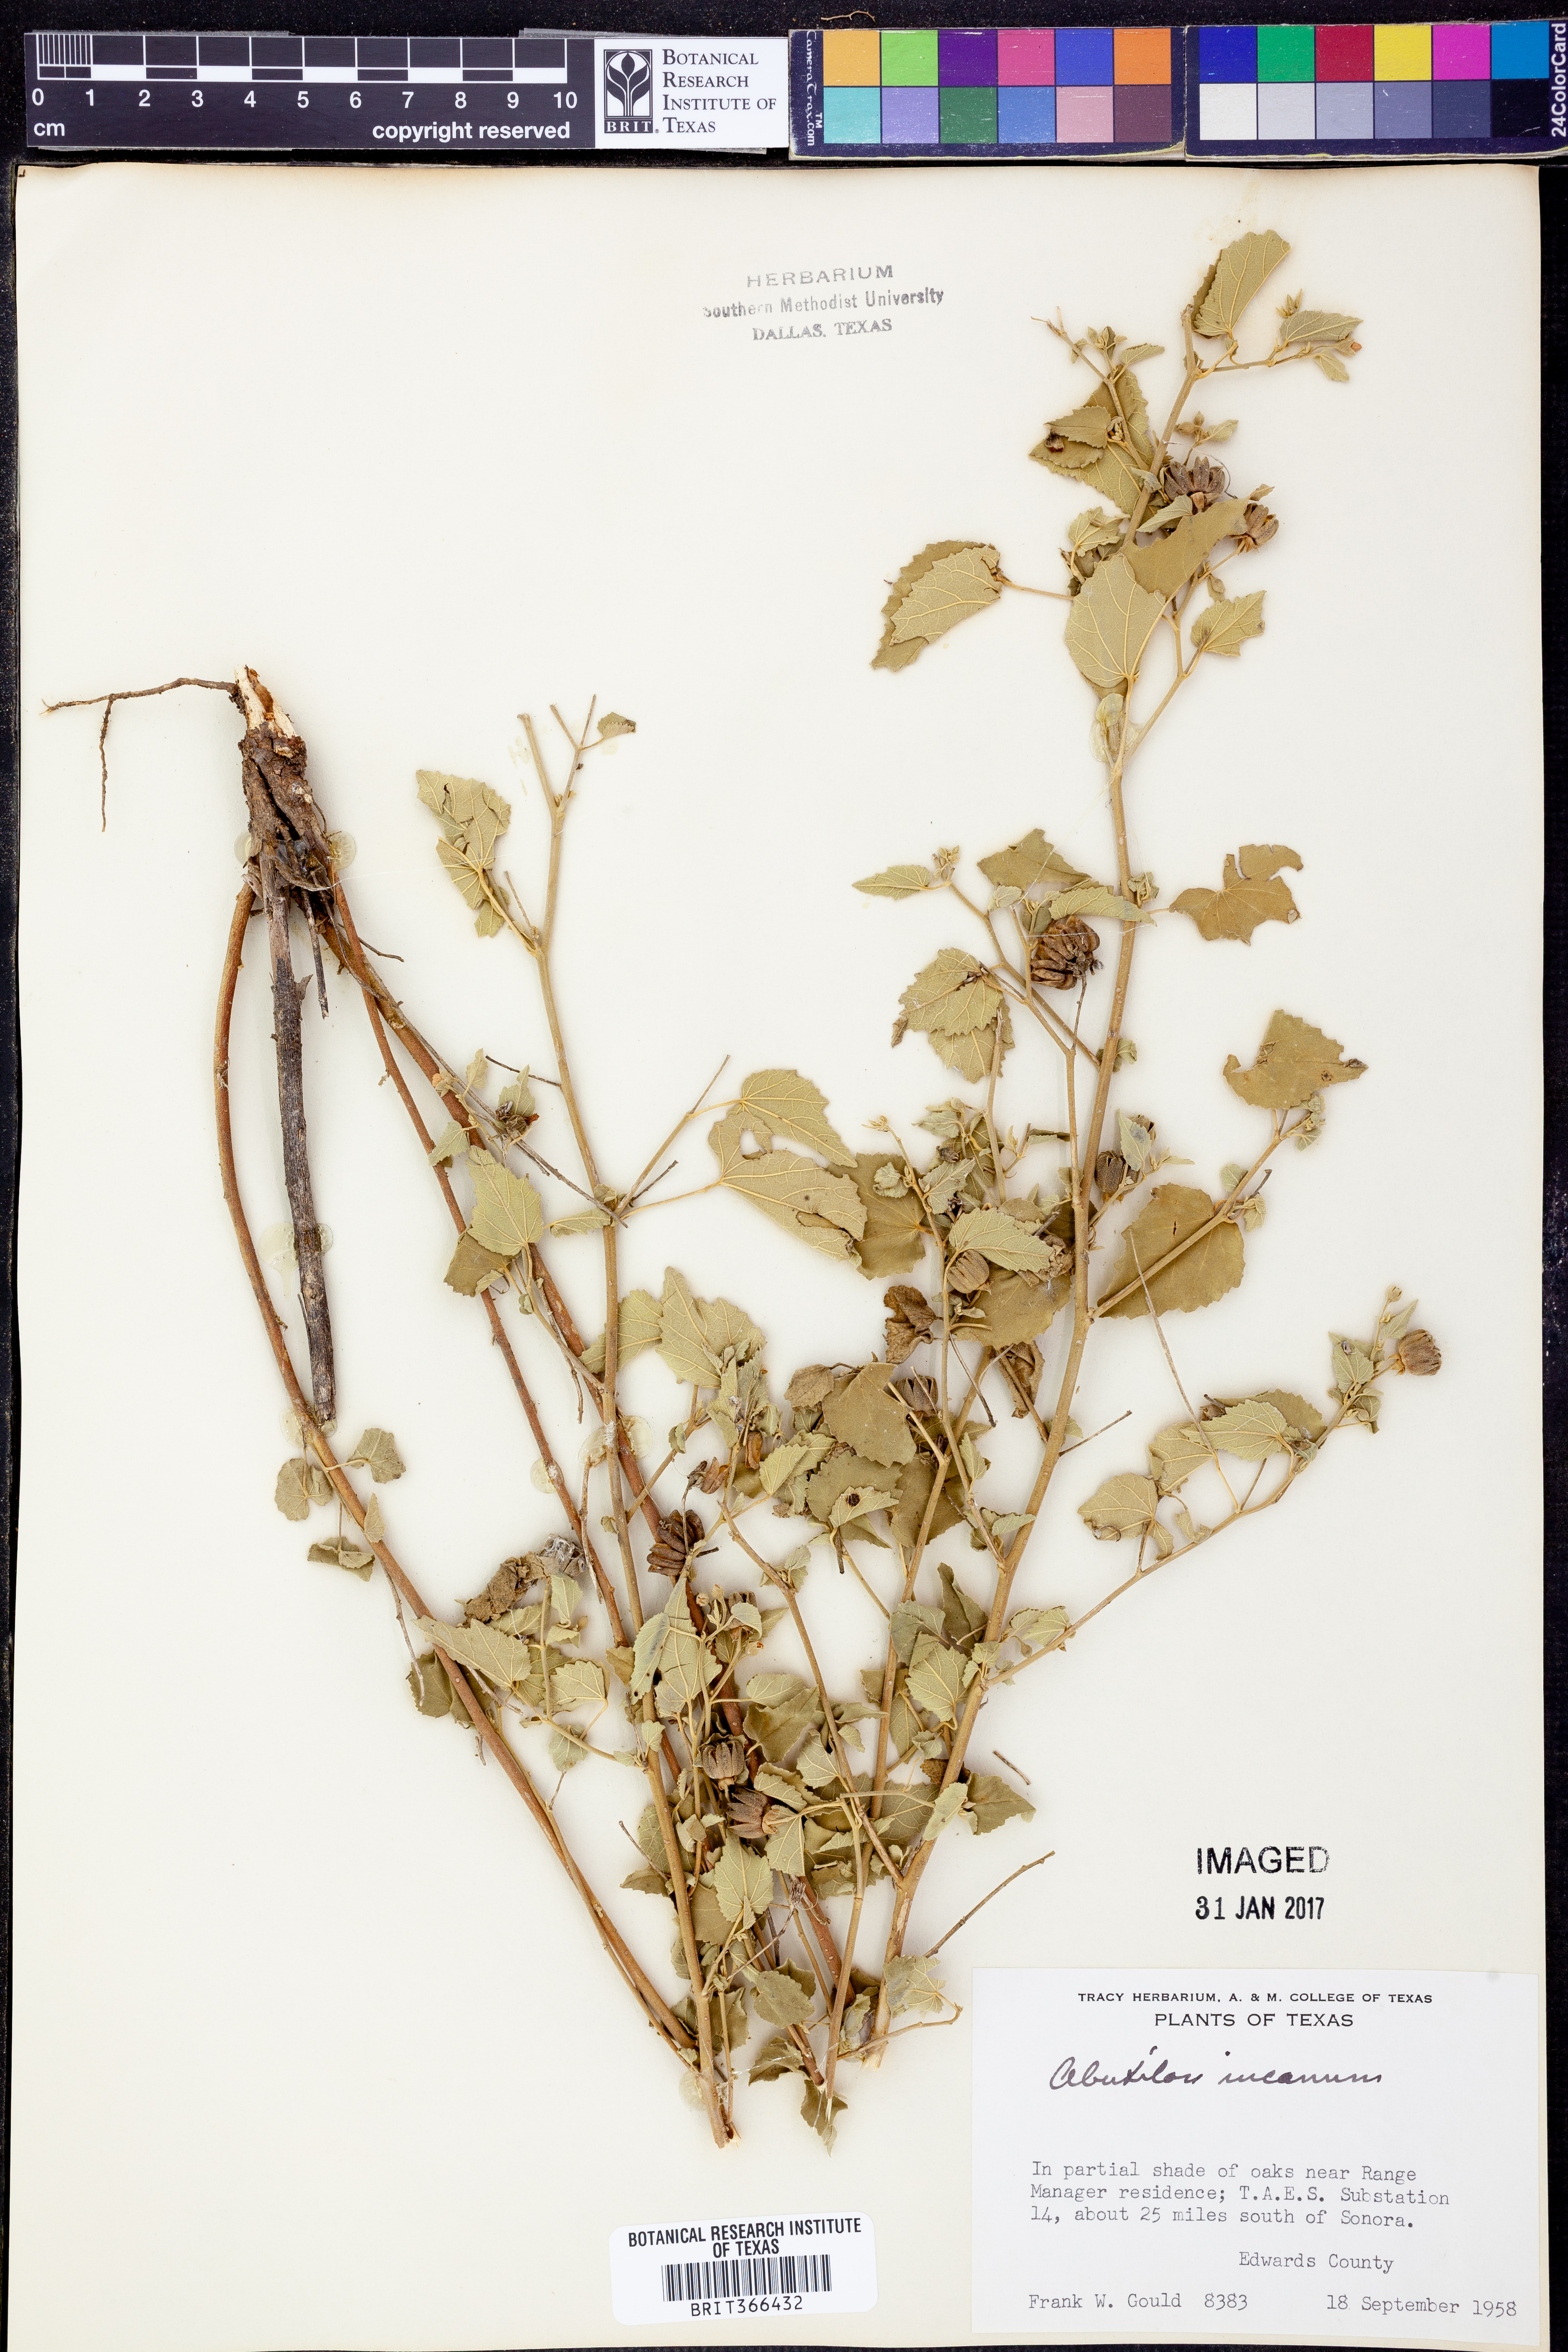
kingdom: Plantae
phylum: Tracheophyta
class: Magnoliopsida
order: Malvales
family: Malvaceae
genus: Abutilon
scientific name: Abutilon incanum
